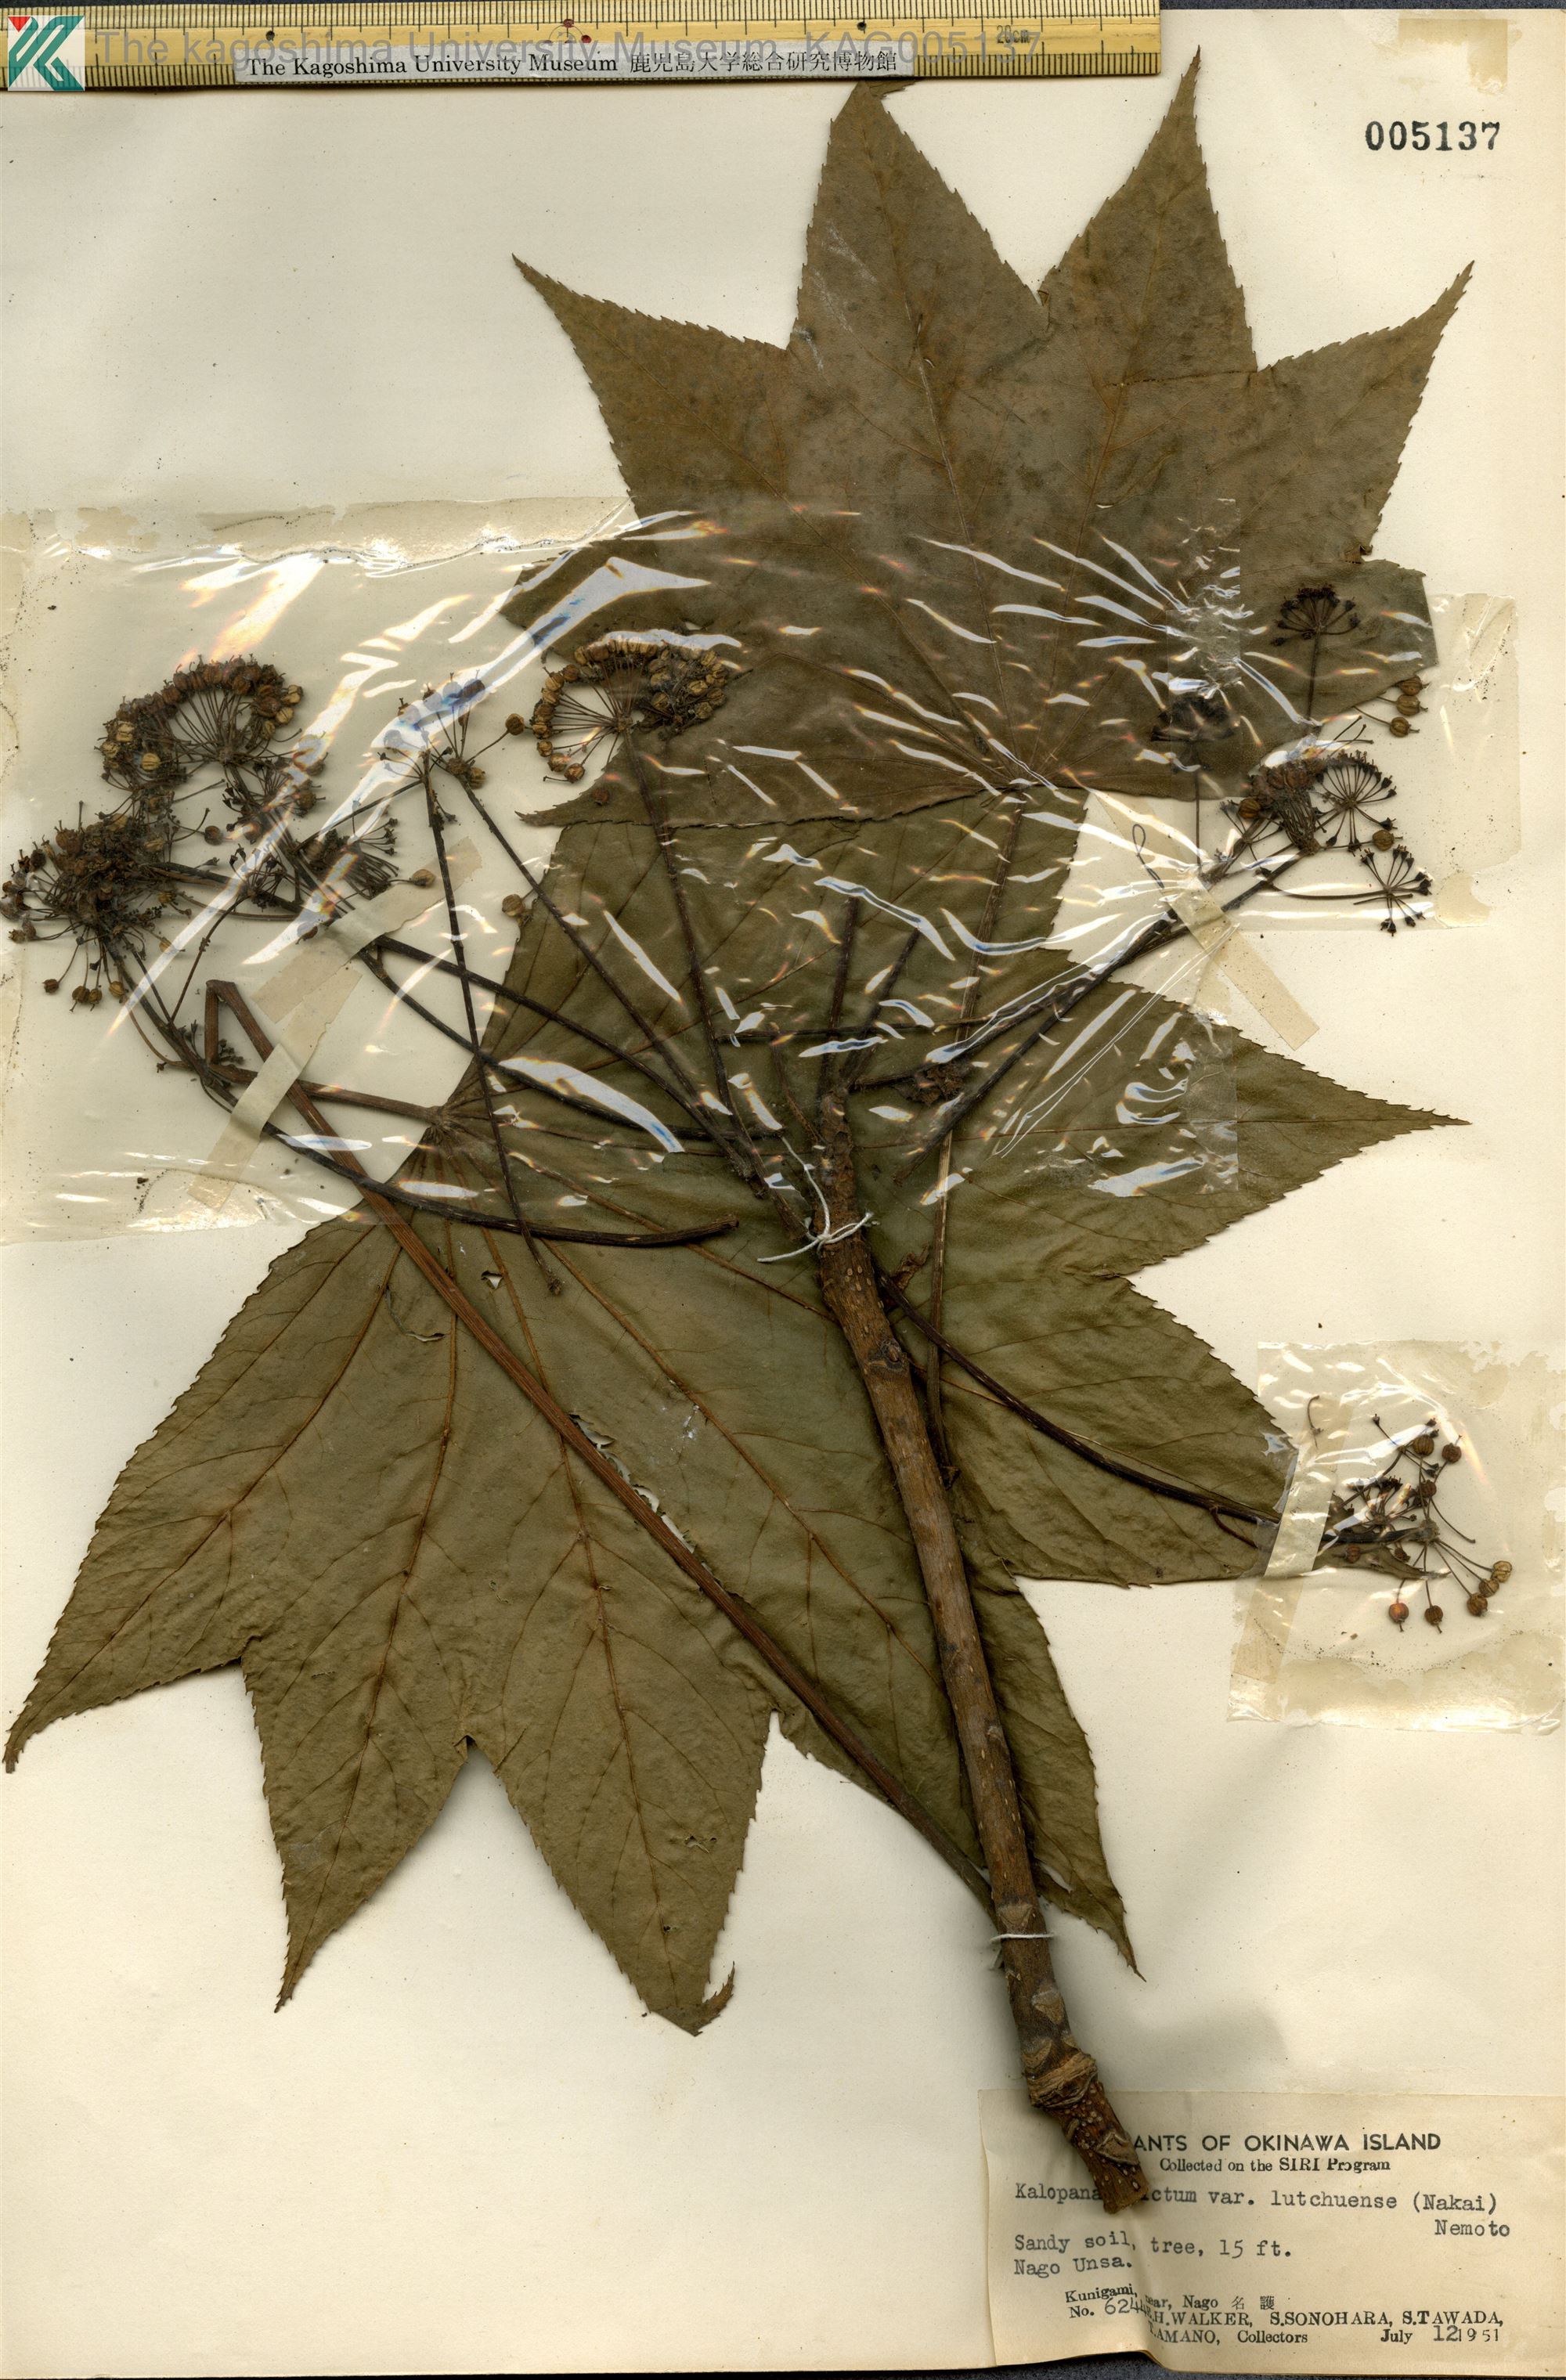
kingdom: Plantae
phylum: Tracheophyta
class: Magnoliopsida
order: Apiales
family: Araliaceae
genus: Kalopanax
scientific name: Kalopanax septemlobus
